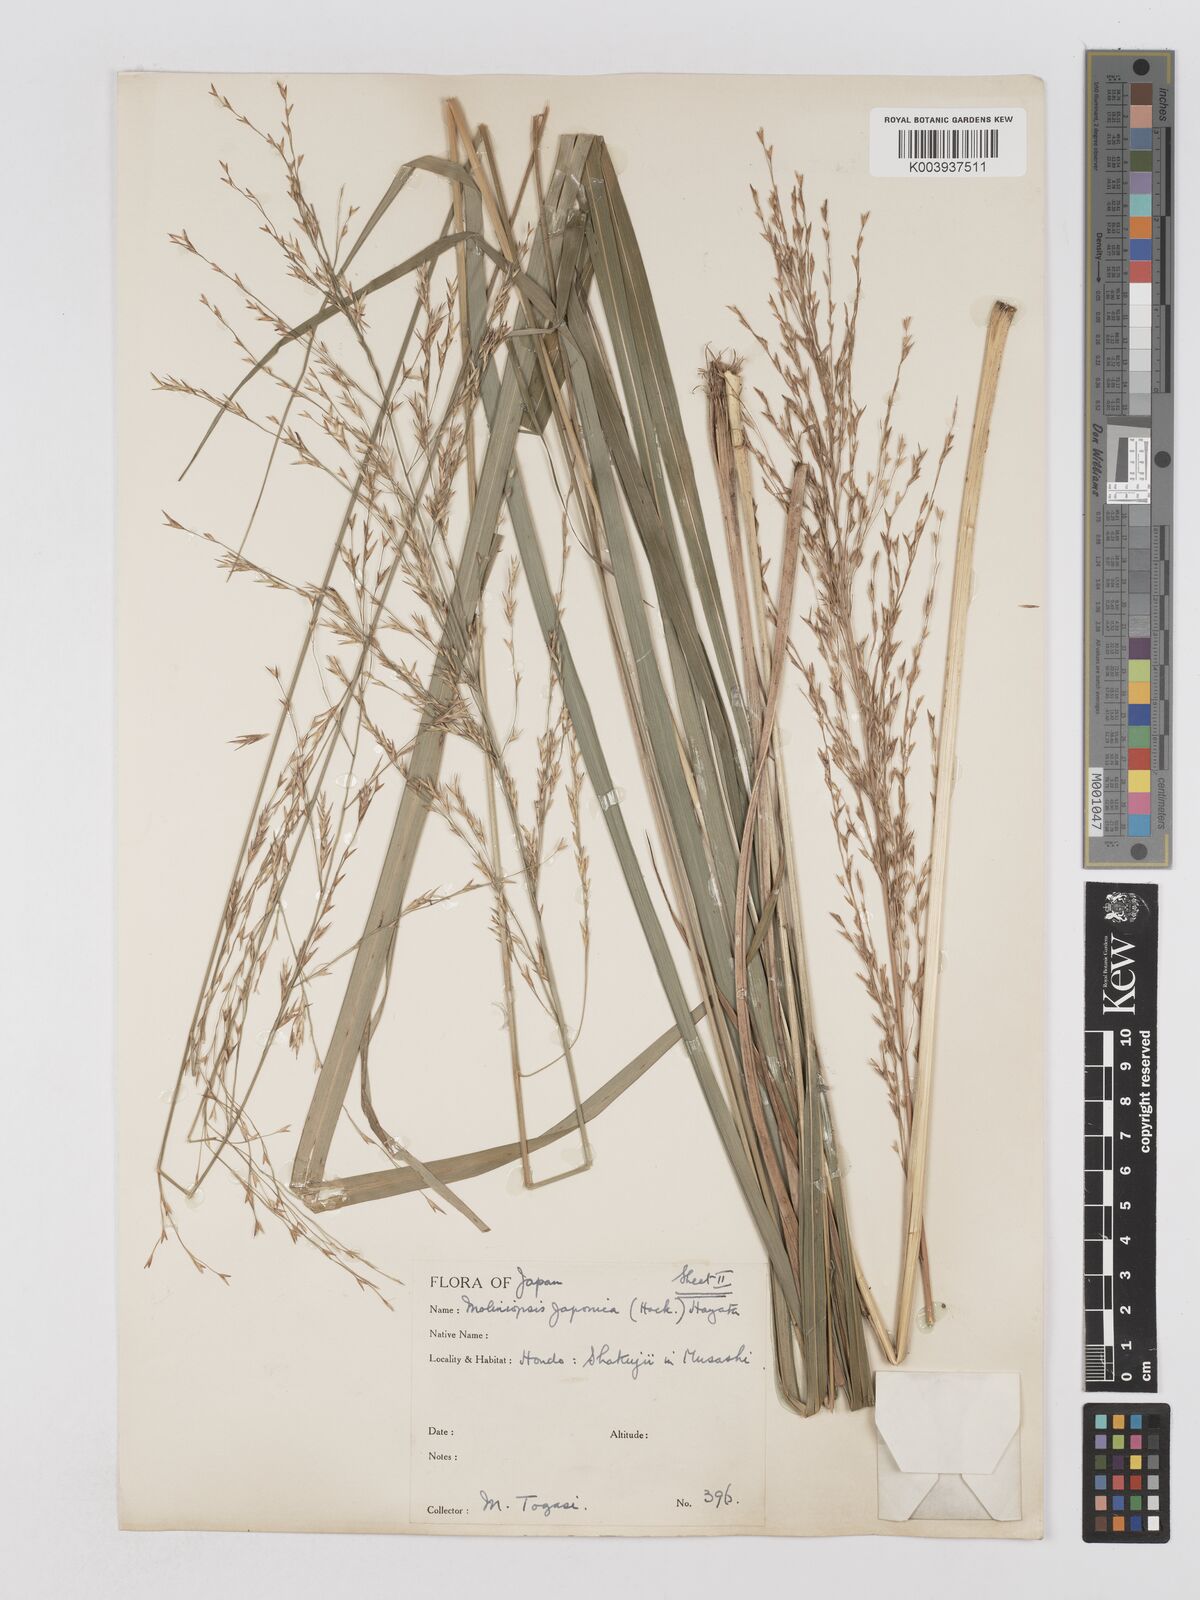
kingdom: Plantae
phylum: Tracheophyta
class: Liliopsida
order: Poales
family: Poaceae
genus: Moliniopsis
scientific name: Moliniopsis japonica
